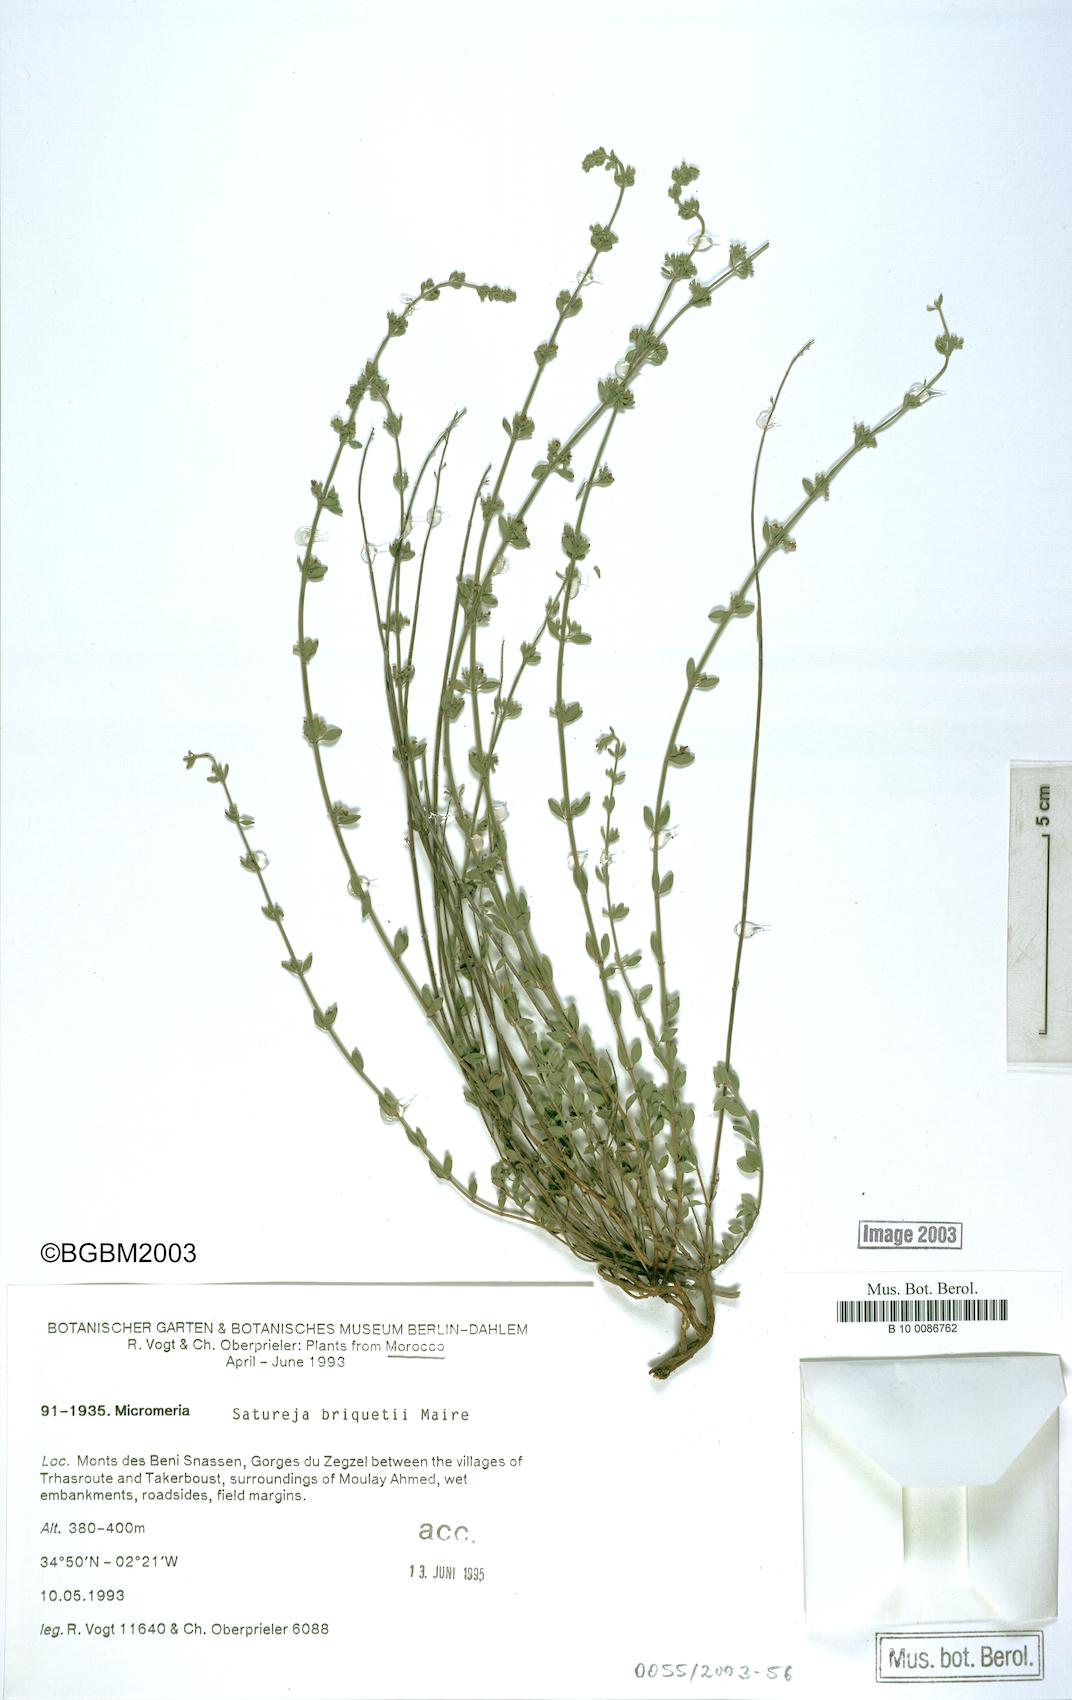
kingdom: Plantae
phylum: Tracheophyta
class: Magnoliopsida
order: Lamiales
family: Lamiaceae
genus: Micromeria
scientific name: Micromeria debilis
